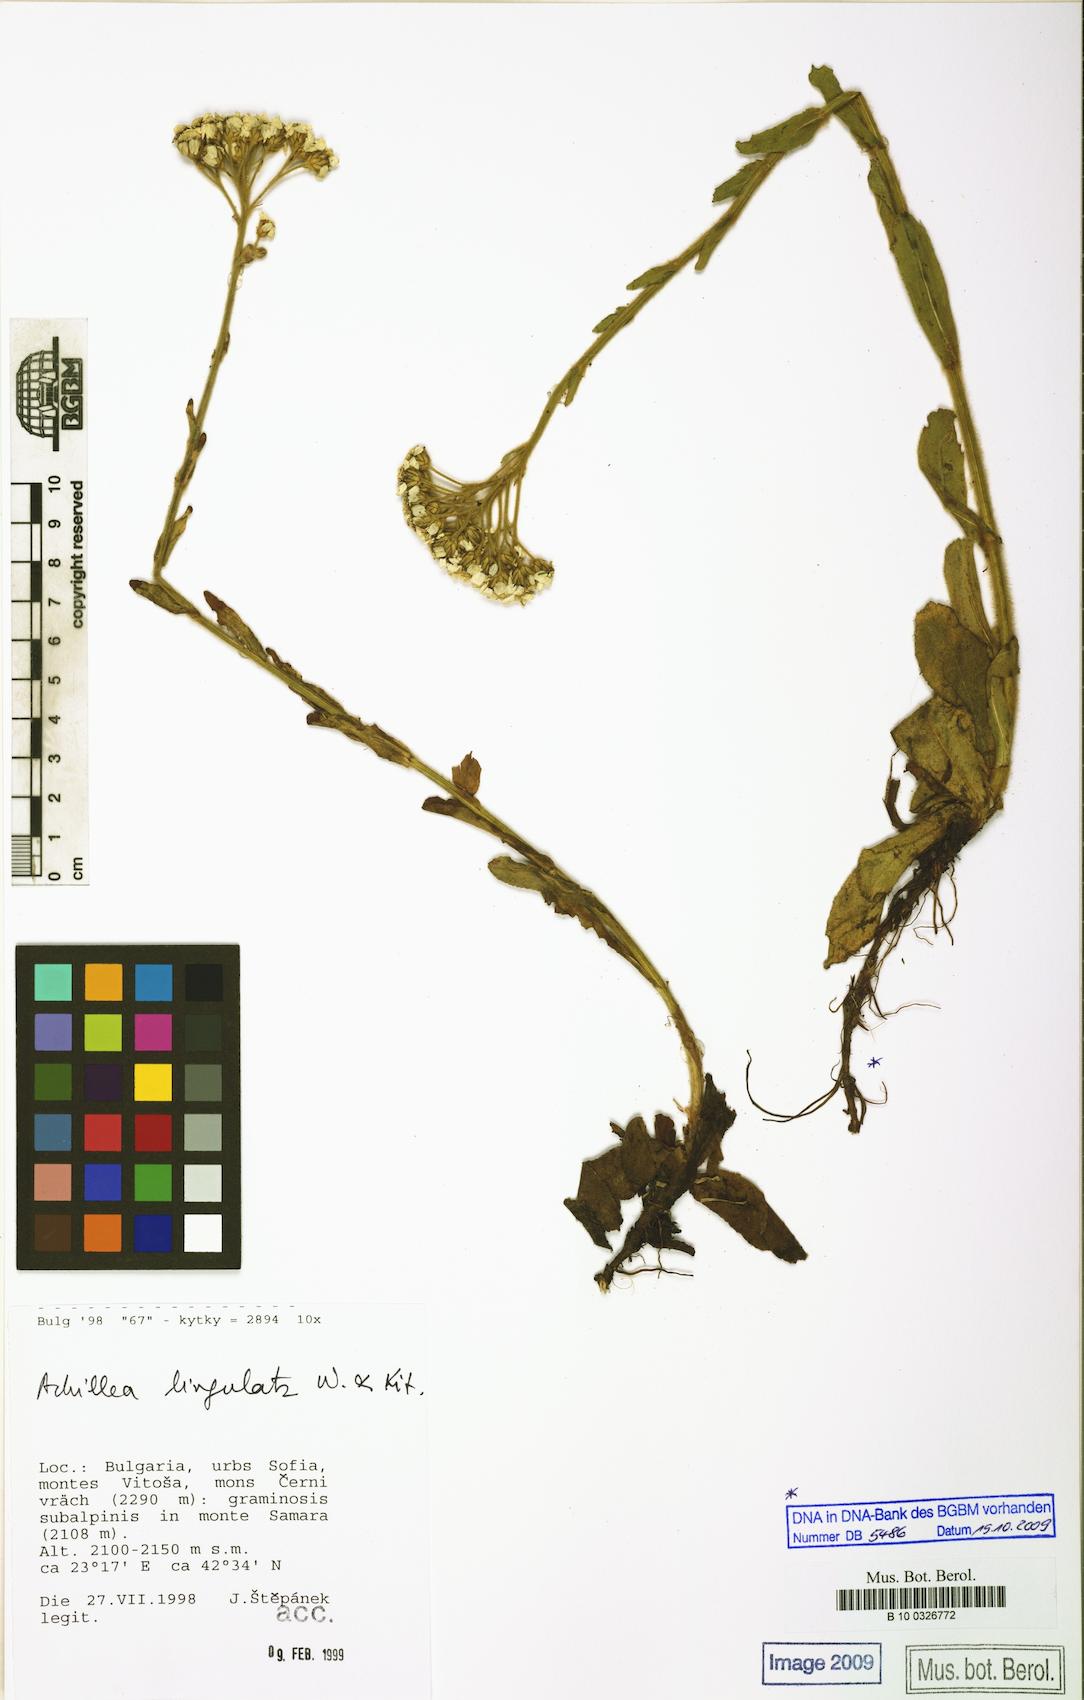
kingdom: Plantae
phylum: Tracheophyta
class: Magnoliopsida
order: Asterales
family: Asteraceae
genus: Achillea
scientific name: Achillea lingulata
